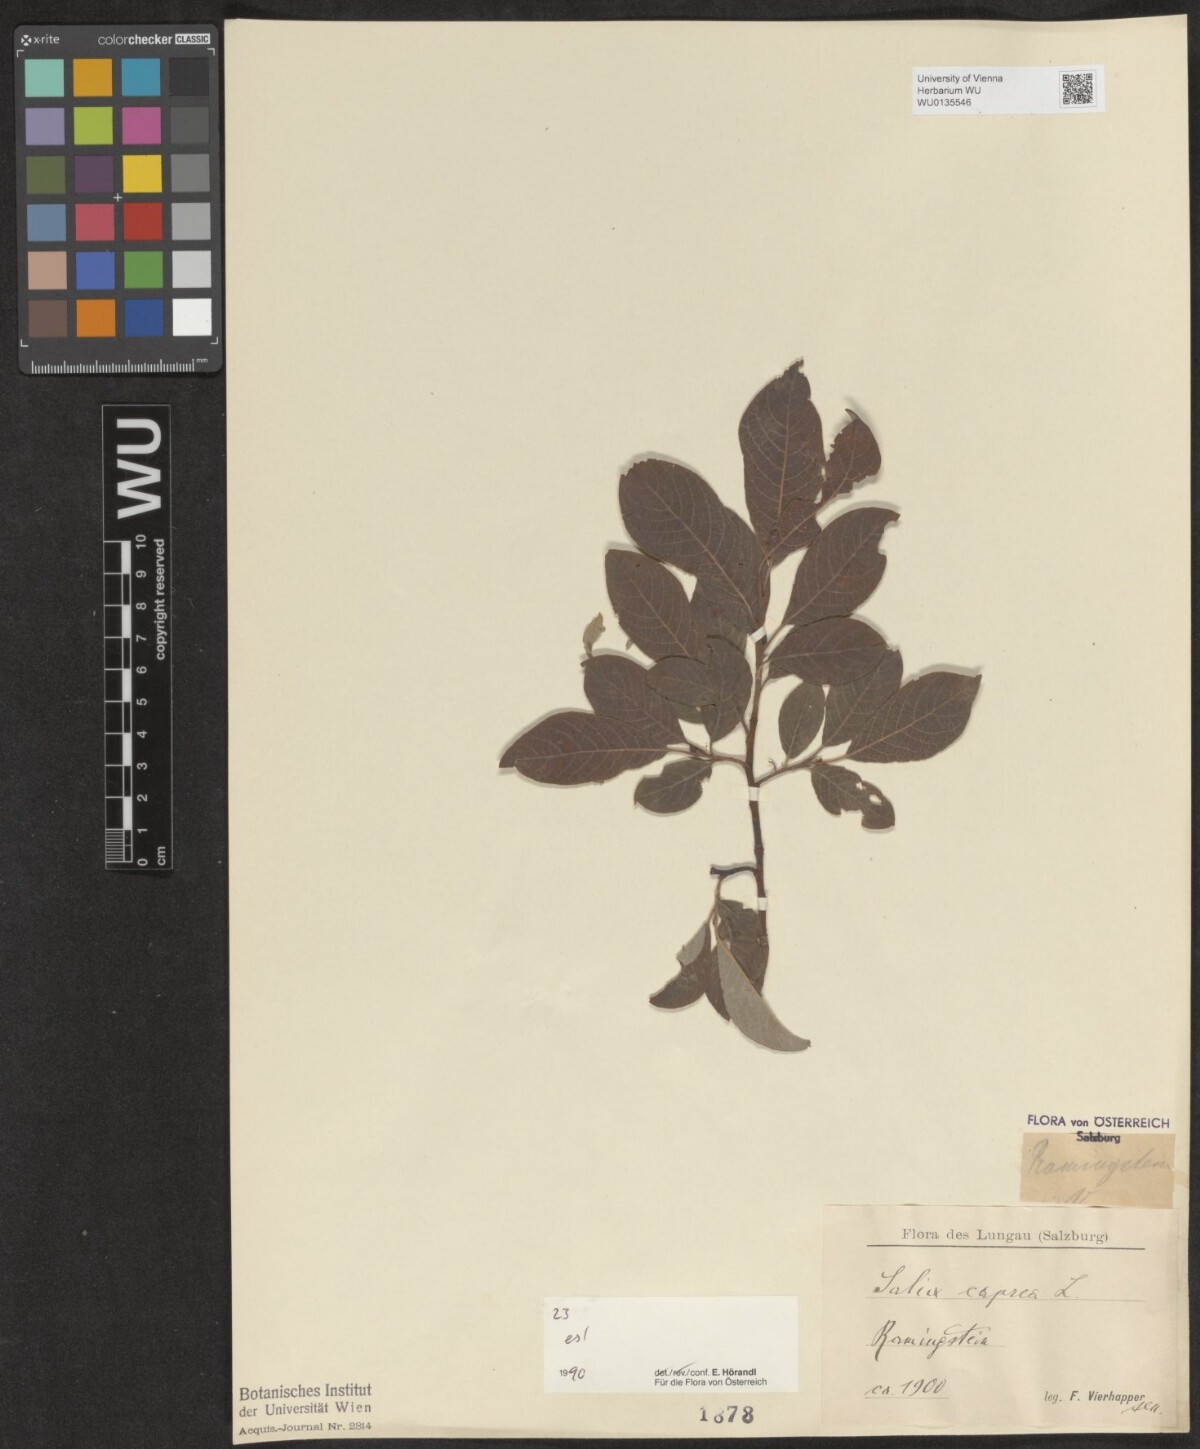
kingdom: Plantae
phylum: Tracheophyta
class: Magnoliopsida
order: Malpighiales
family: Salicaceae
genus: Salix
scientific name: Salix caprea
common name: Goat willow
